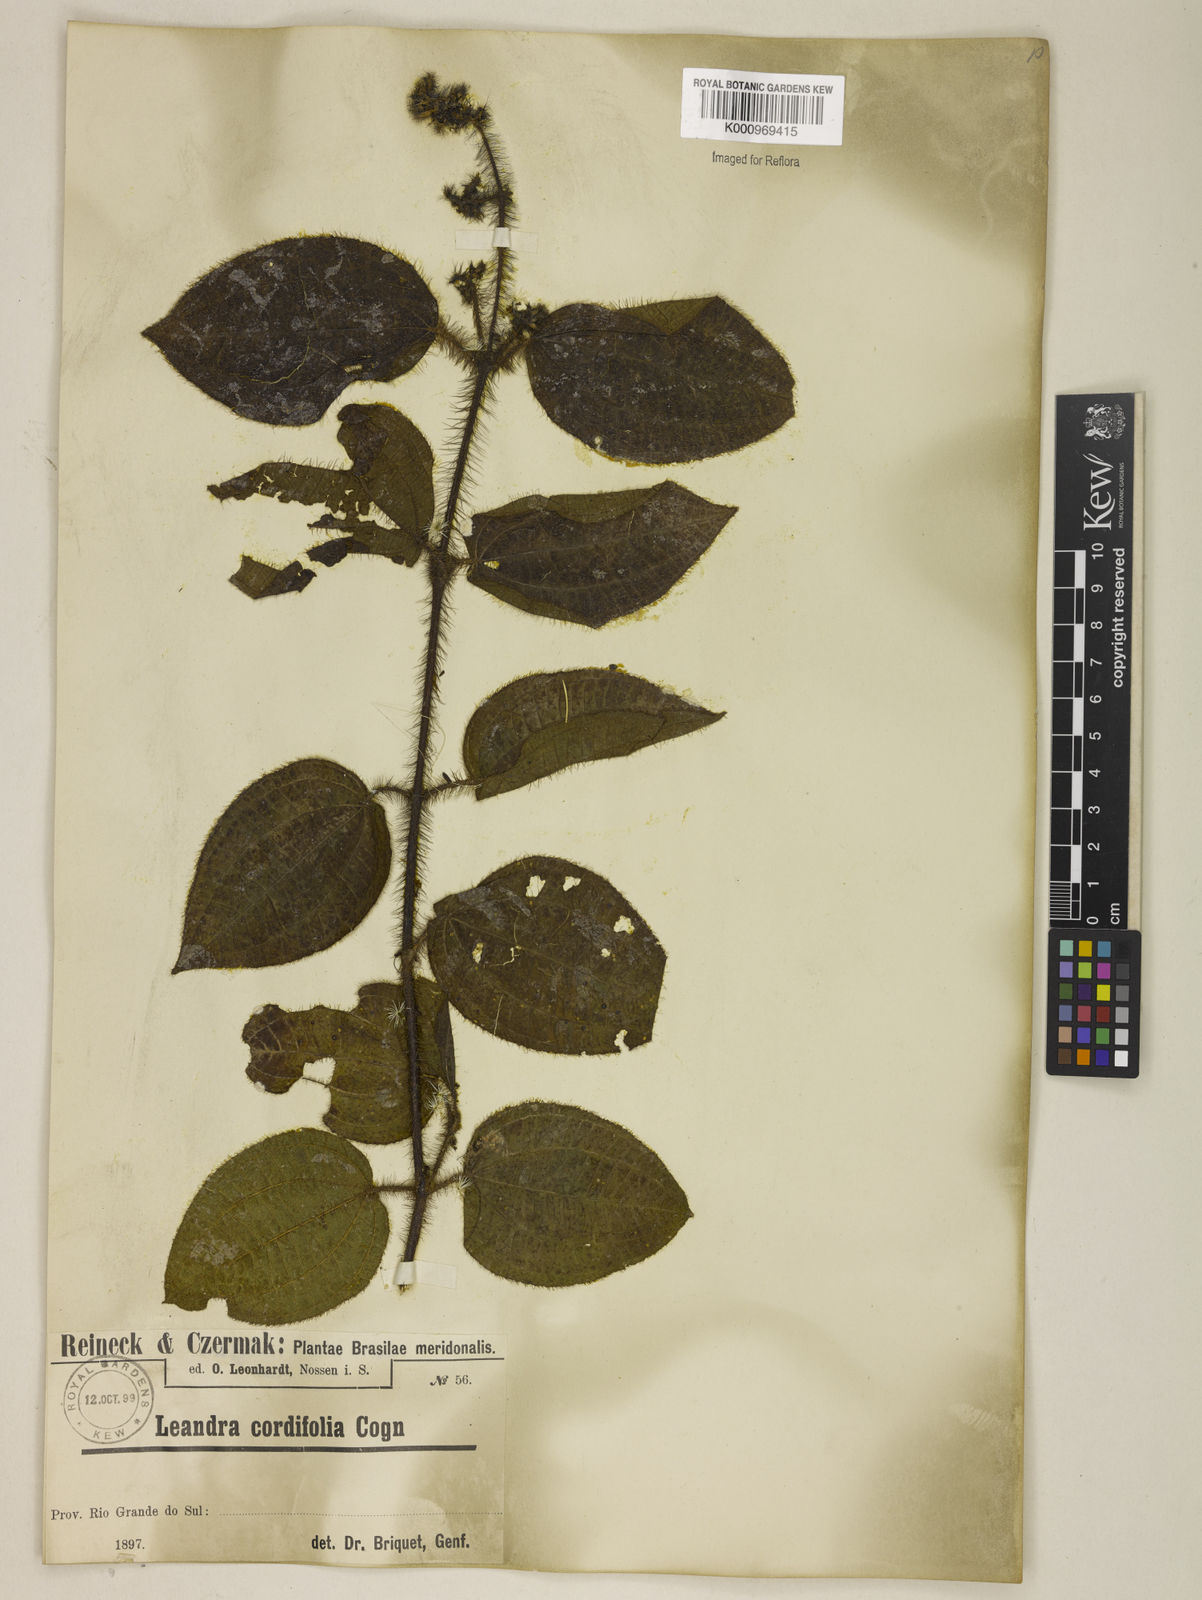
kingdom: Plantae
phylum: Tracheophyta
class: Magnoliopsida
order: Myrtales
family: Melastomataceae
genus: Miconia
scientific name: Miconia leacordifolia
